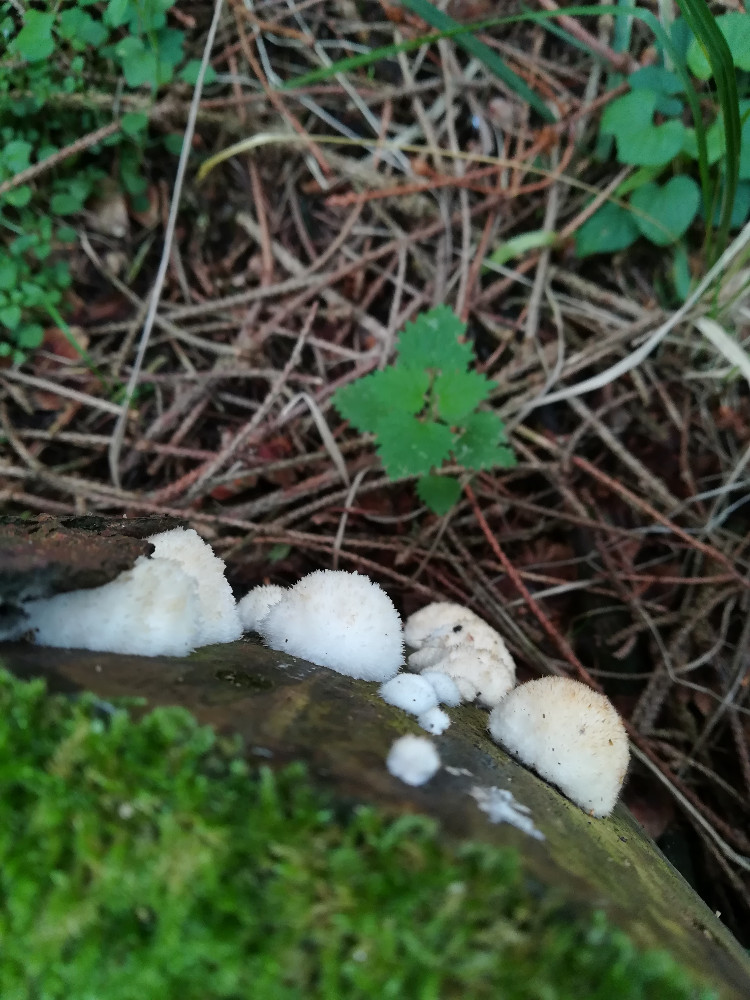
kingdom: Fungi
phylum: Basidiomycota
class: Agaricomycetes
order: Polyporales
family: Dacryobolaceae
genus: Postia
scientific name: Postia ptychogaster
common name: støvende kødporesvamp
